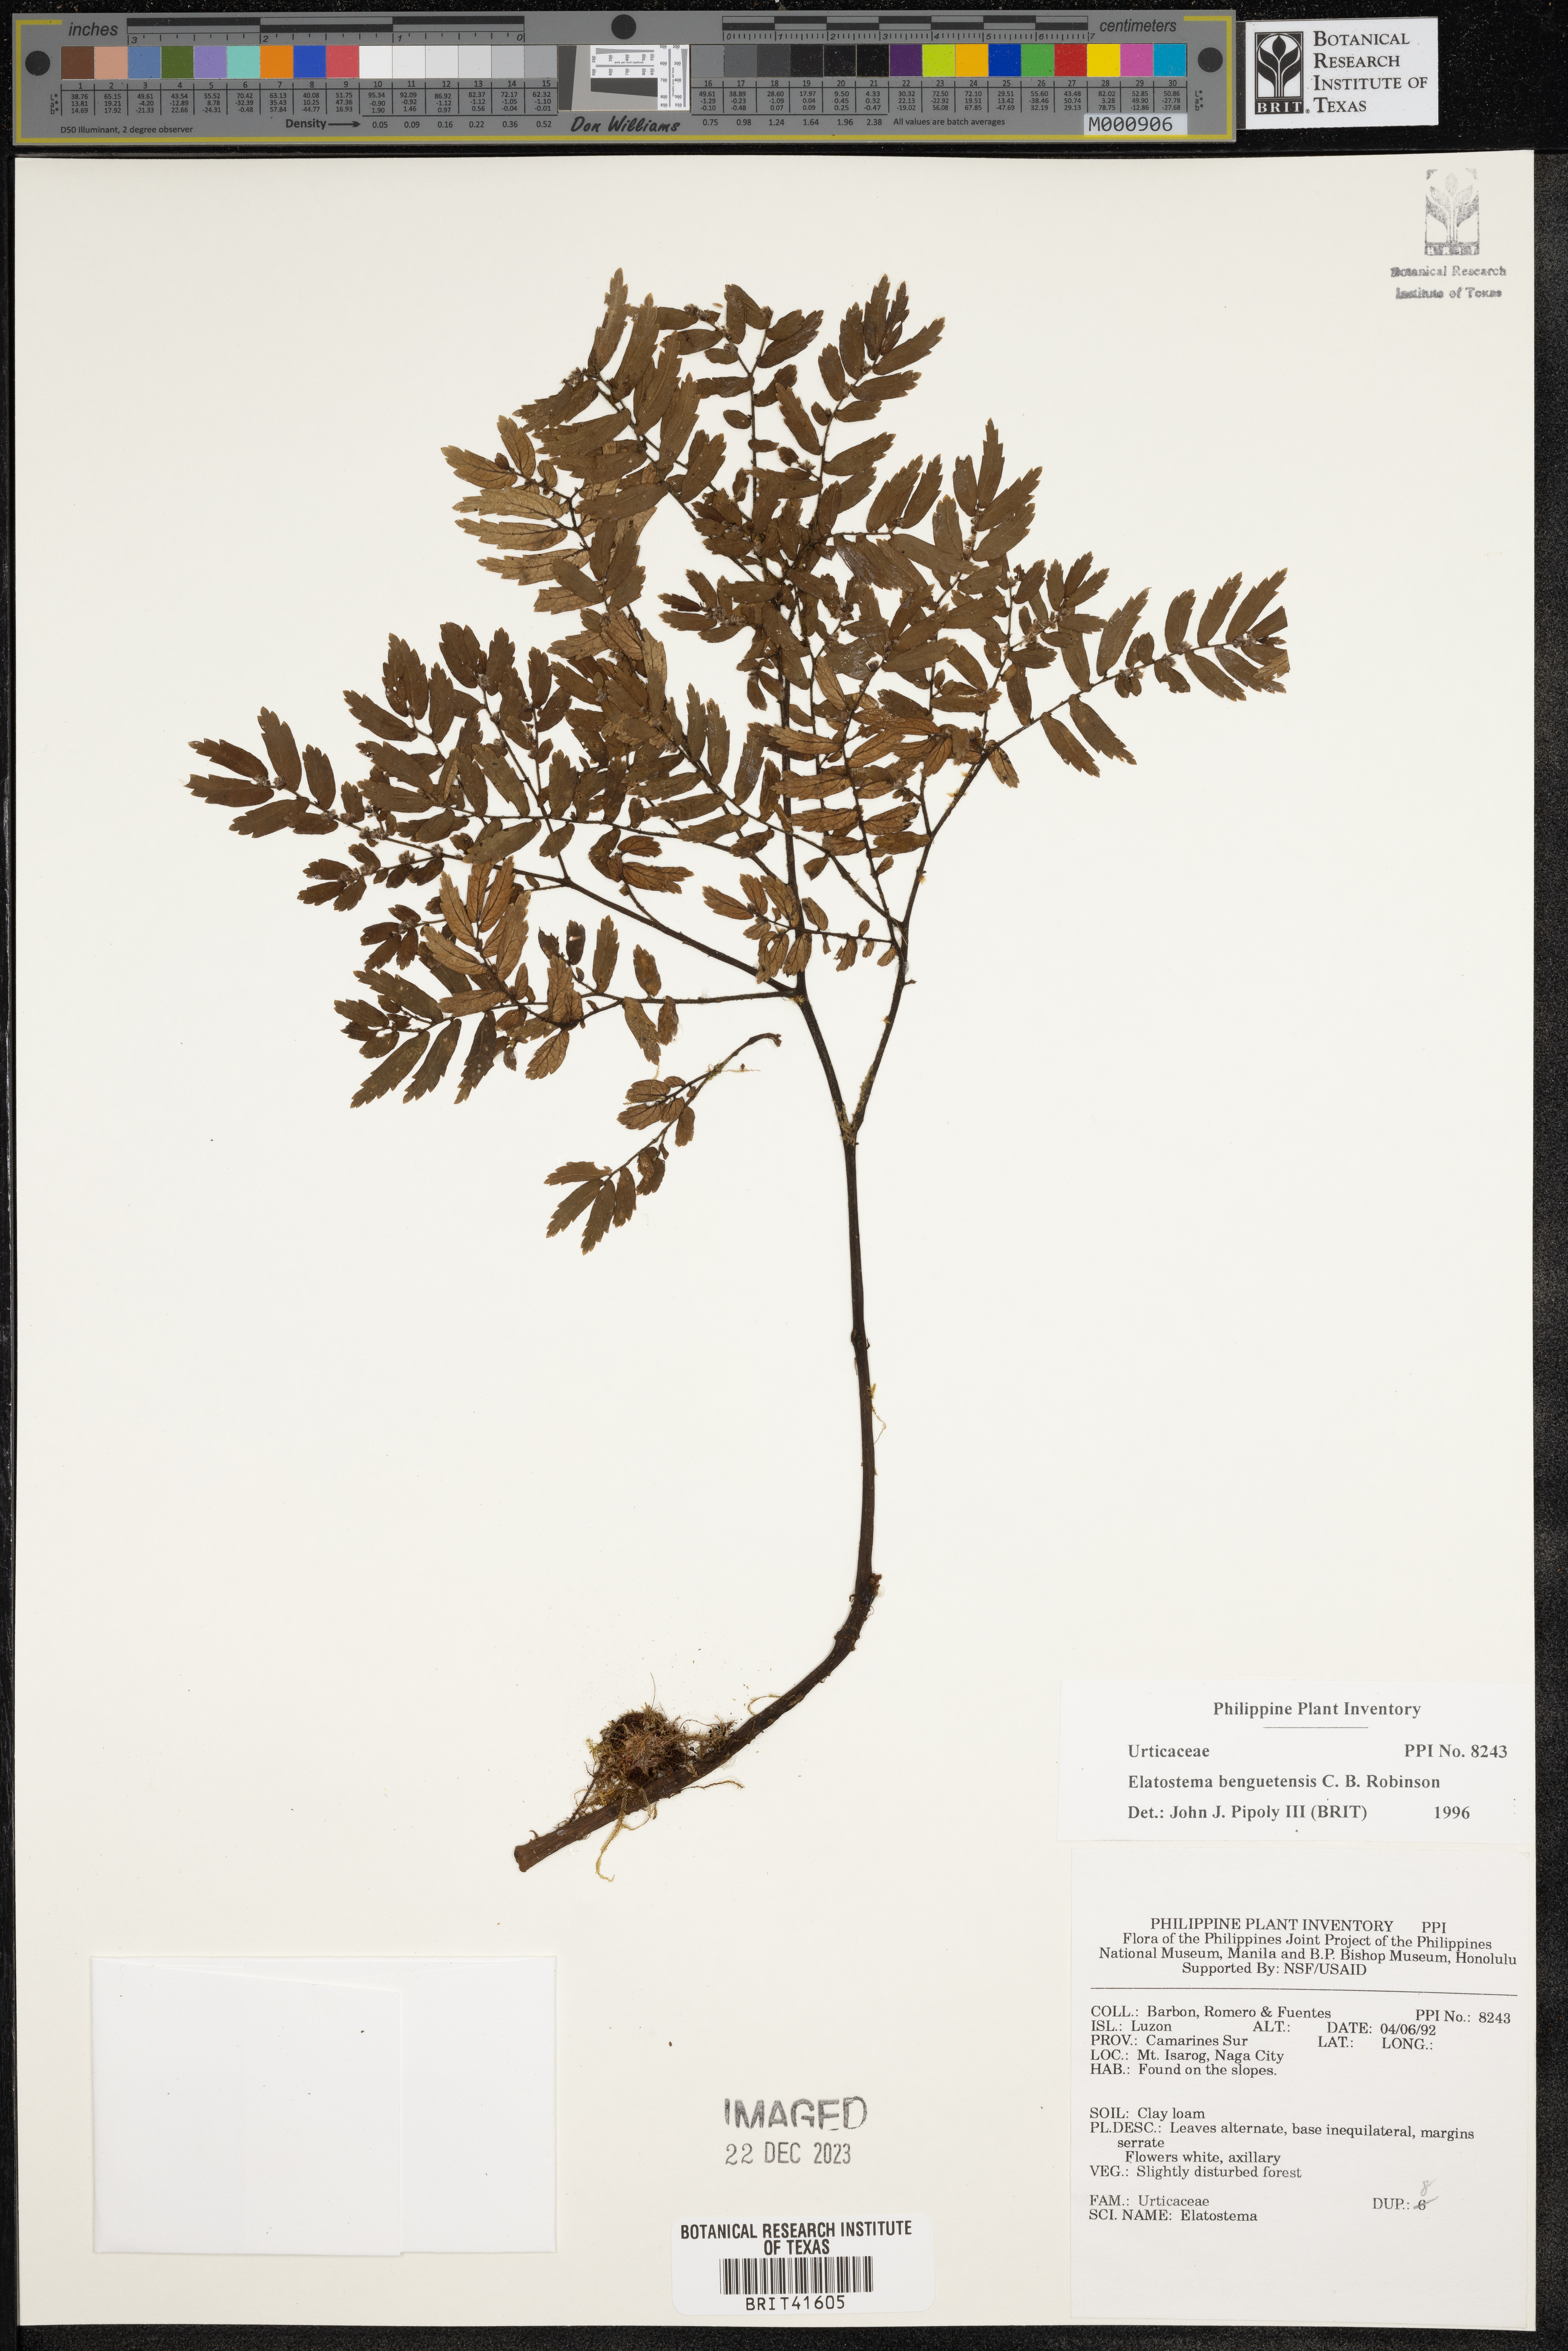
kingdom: Plantae
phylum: Tracheophyta
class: Magnoliopsida
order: Rosales
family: Urticaceae
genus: Elatostema
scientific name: Elatostema benguetense
